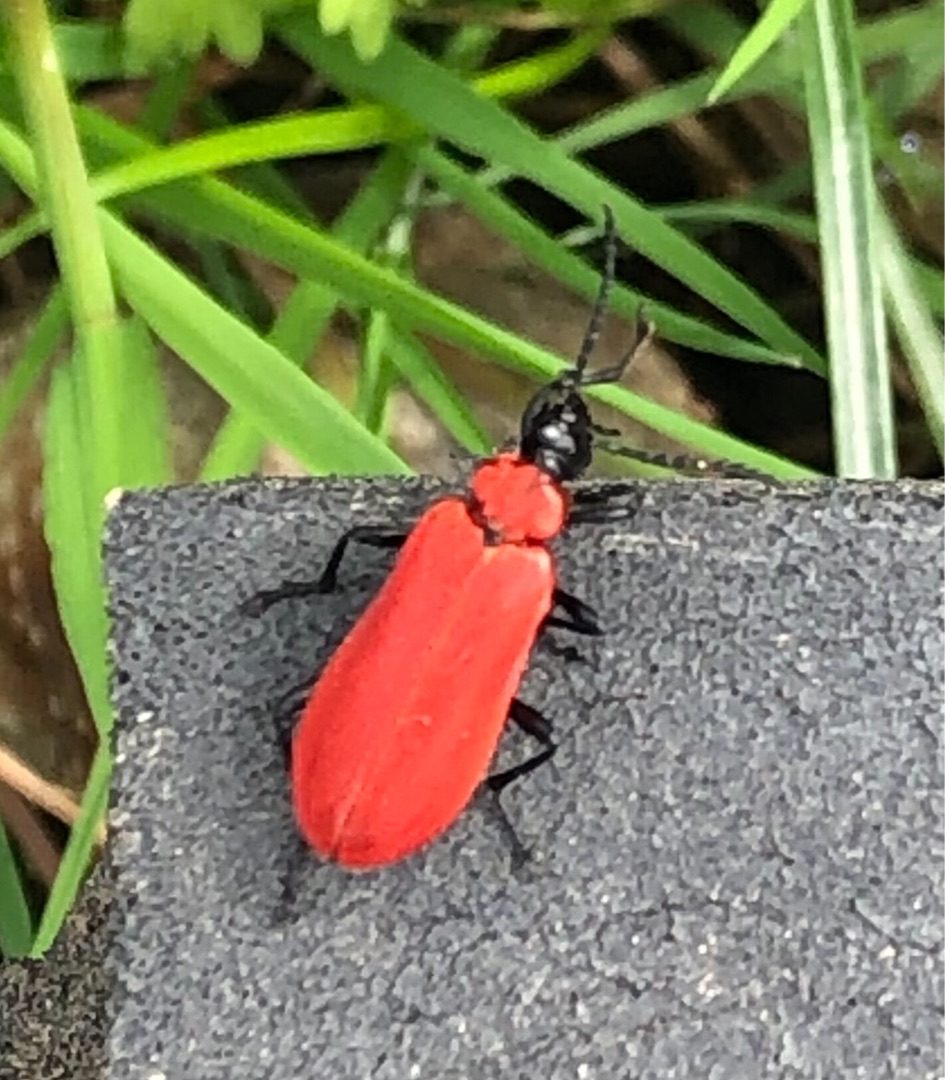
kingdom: Animalia
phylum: Arthropoda
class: Insecta
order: Coleoptera
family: Pyrochroidae
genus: Pyrochroa
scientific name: Pyrochroa coccinea
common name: Sorthovedet kardinalbille
